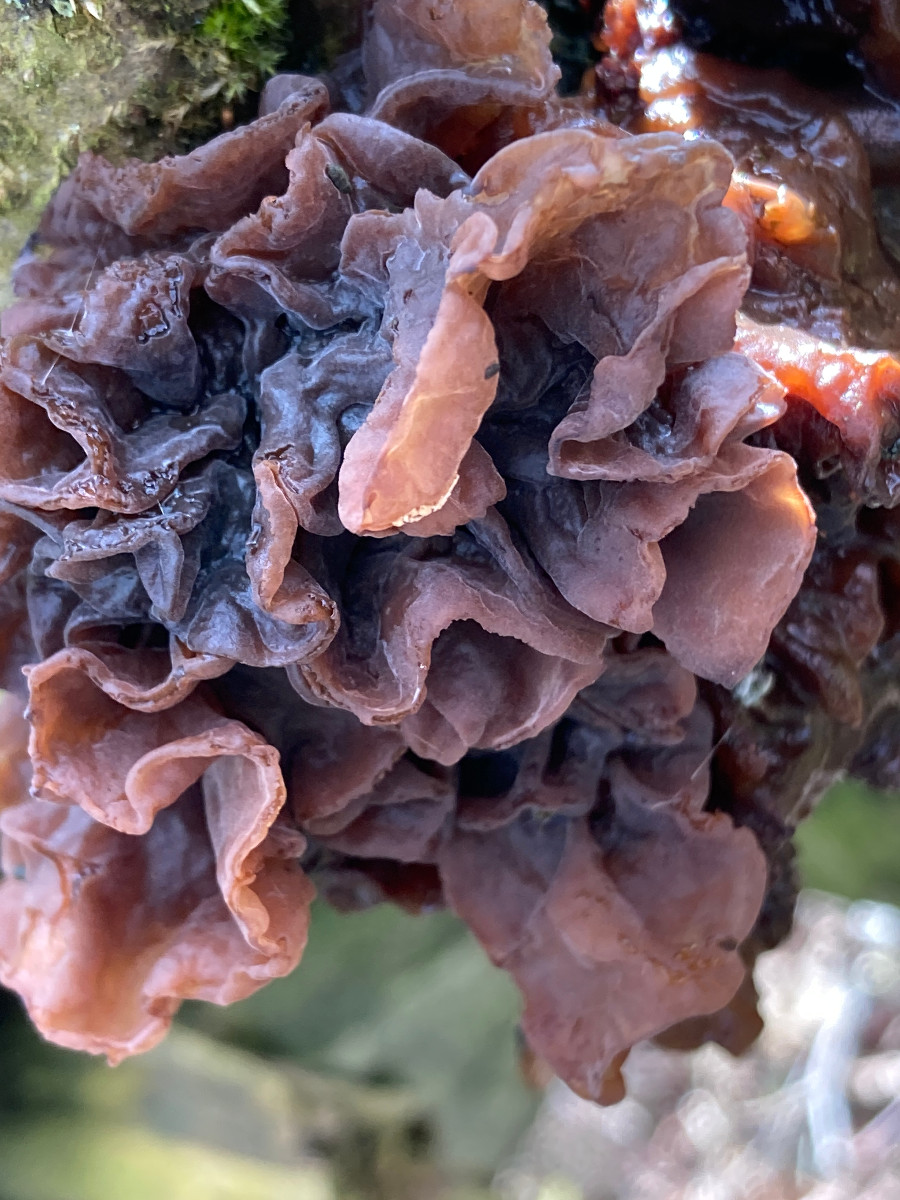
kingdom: Fungi
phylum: Basidiomycota
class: Tremellomycetes
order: Tremellales
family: Tremellaceae
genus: Phaeotremella
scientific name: Phaeotremella frondosa
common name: kæmpe-bævresvamp
